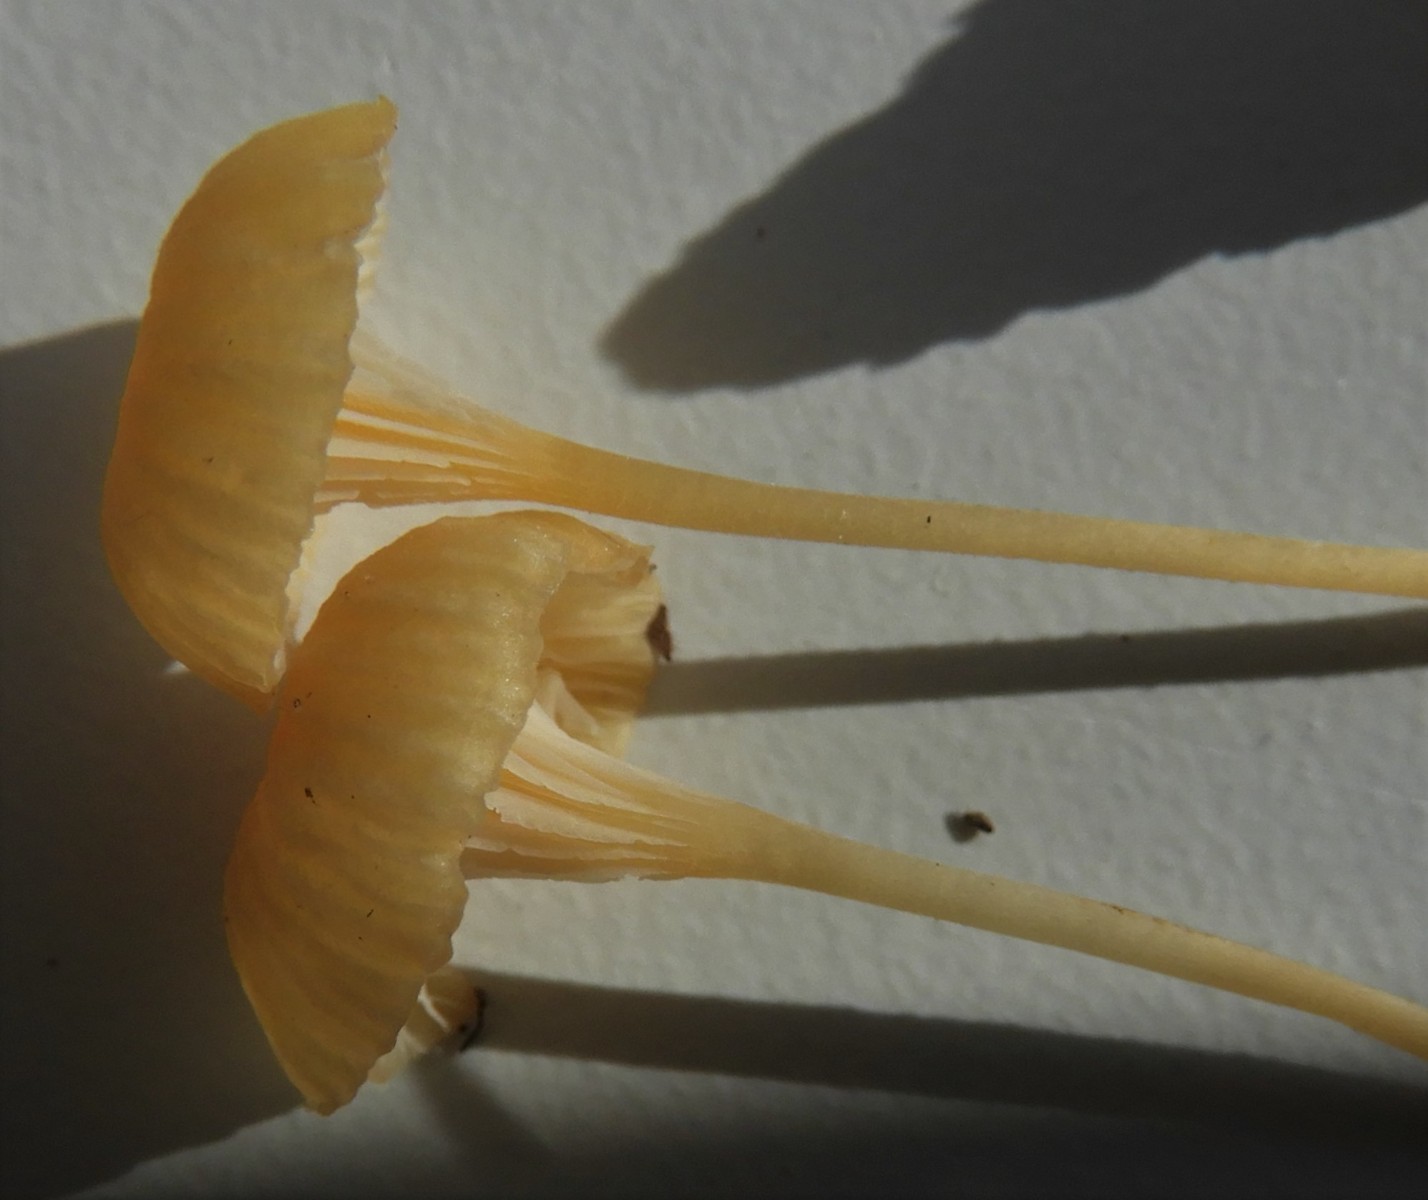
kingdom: Fungi
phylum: Basidiomycota
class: Agaricomycetes
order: Hymenochaetales
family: Rickenellaceae
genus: Rickenella
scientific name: Rickenella fibula
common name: orange mosnavlehat
